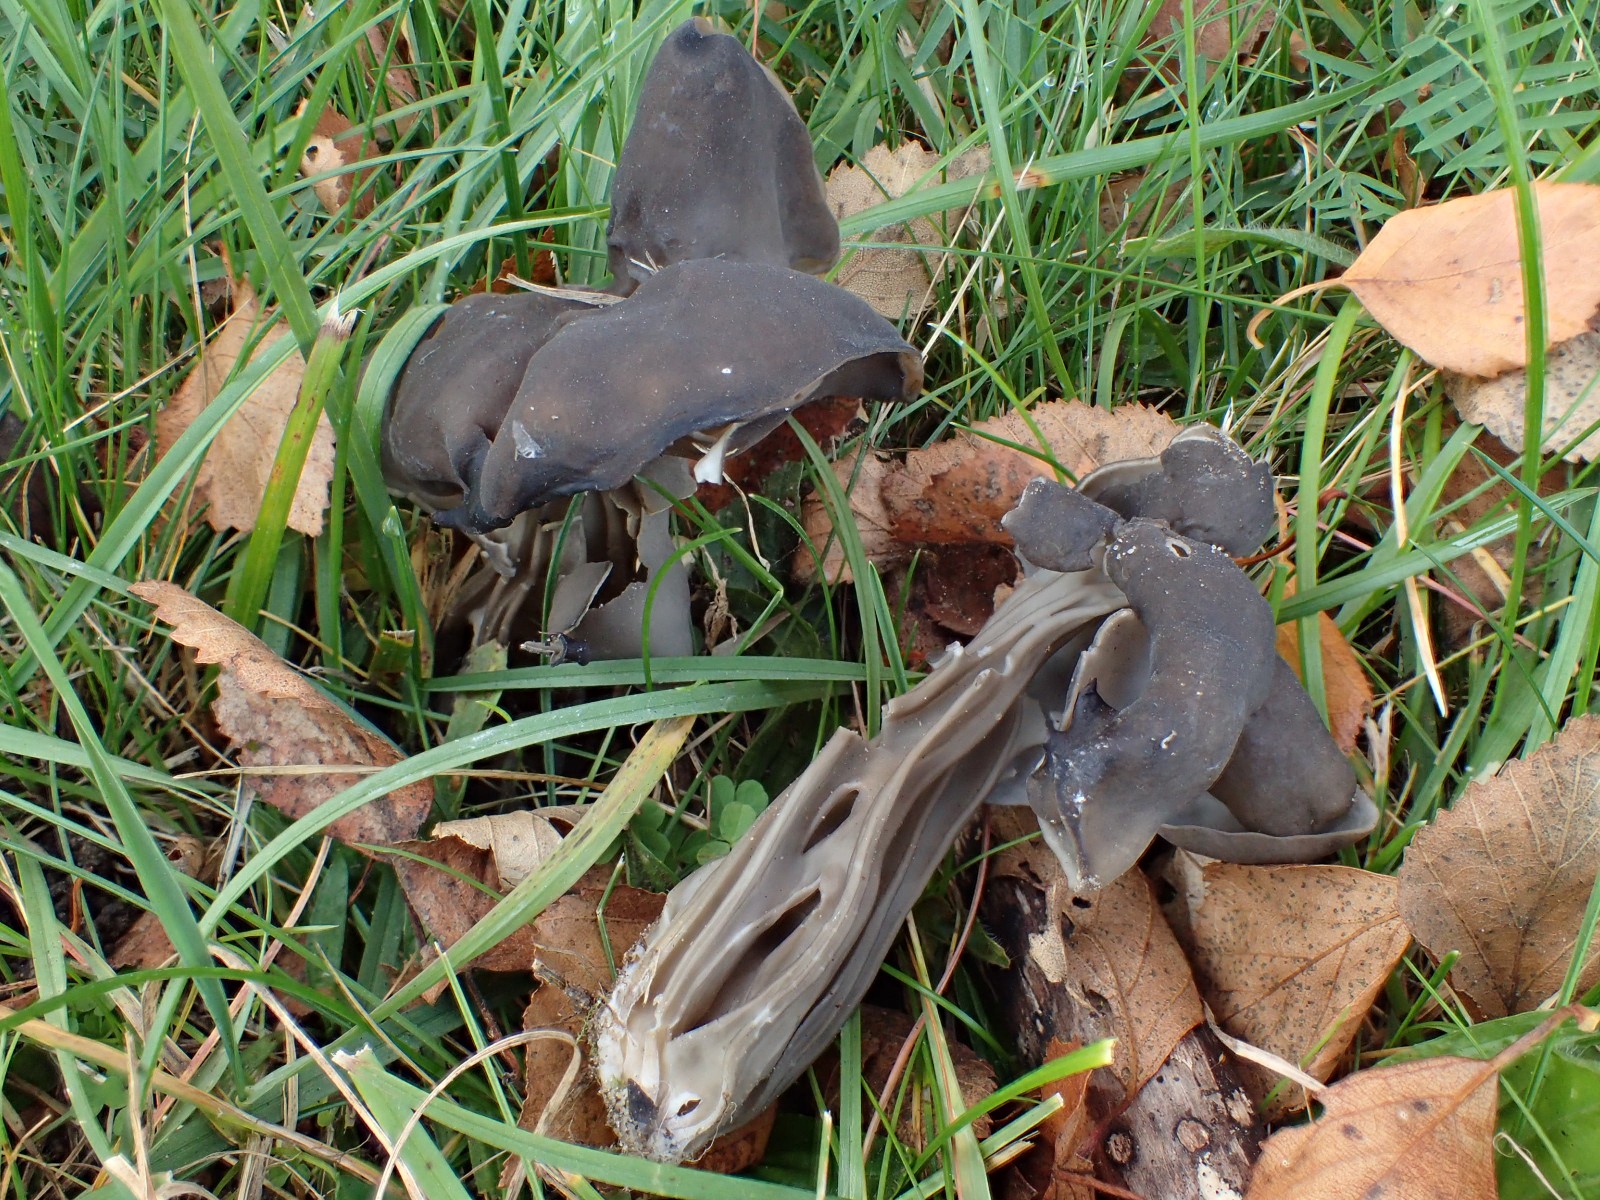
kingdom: Fungi
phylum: Ascomycota
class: Pezizomycetes
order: Pezizales
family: Helvellaceae
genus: Helvella
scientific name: Helvella lacunosa
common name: grubet foldhat
